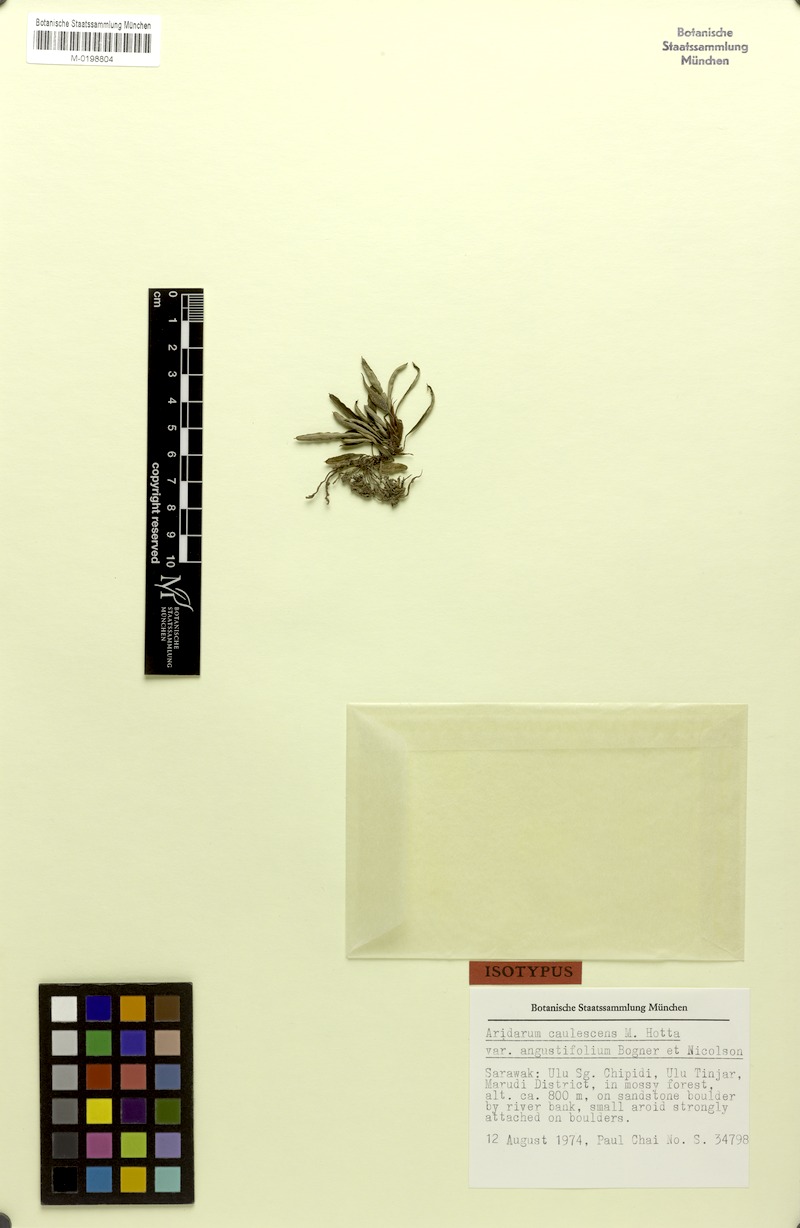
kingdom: Plantae
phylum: Tracheophyta
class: Liliopsida
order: Alismatales
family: Araceae
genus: Burttianthus
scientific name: Burttianthus caulescens
